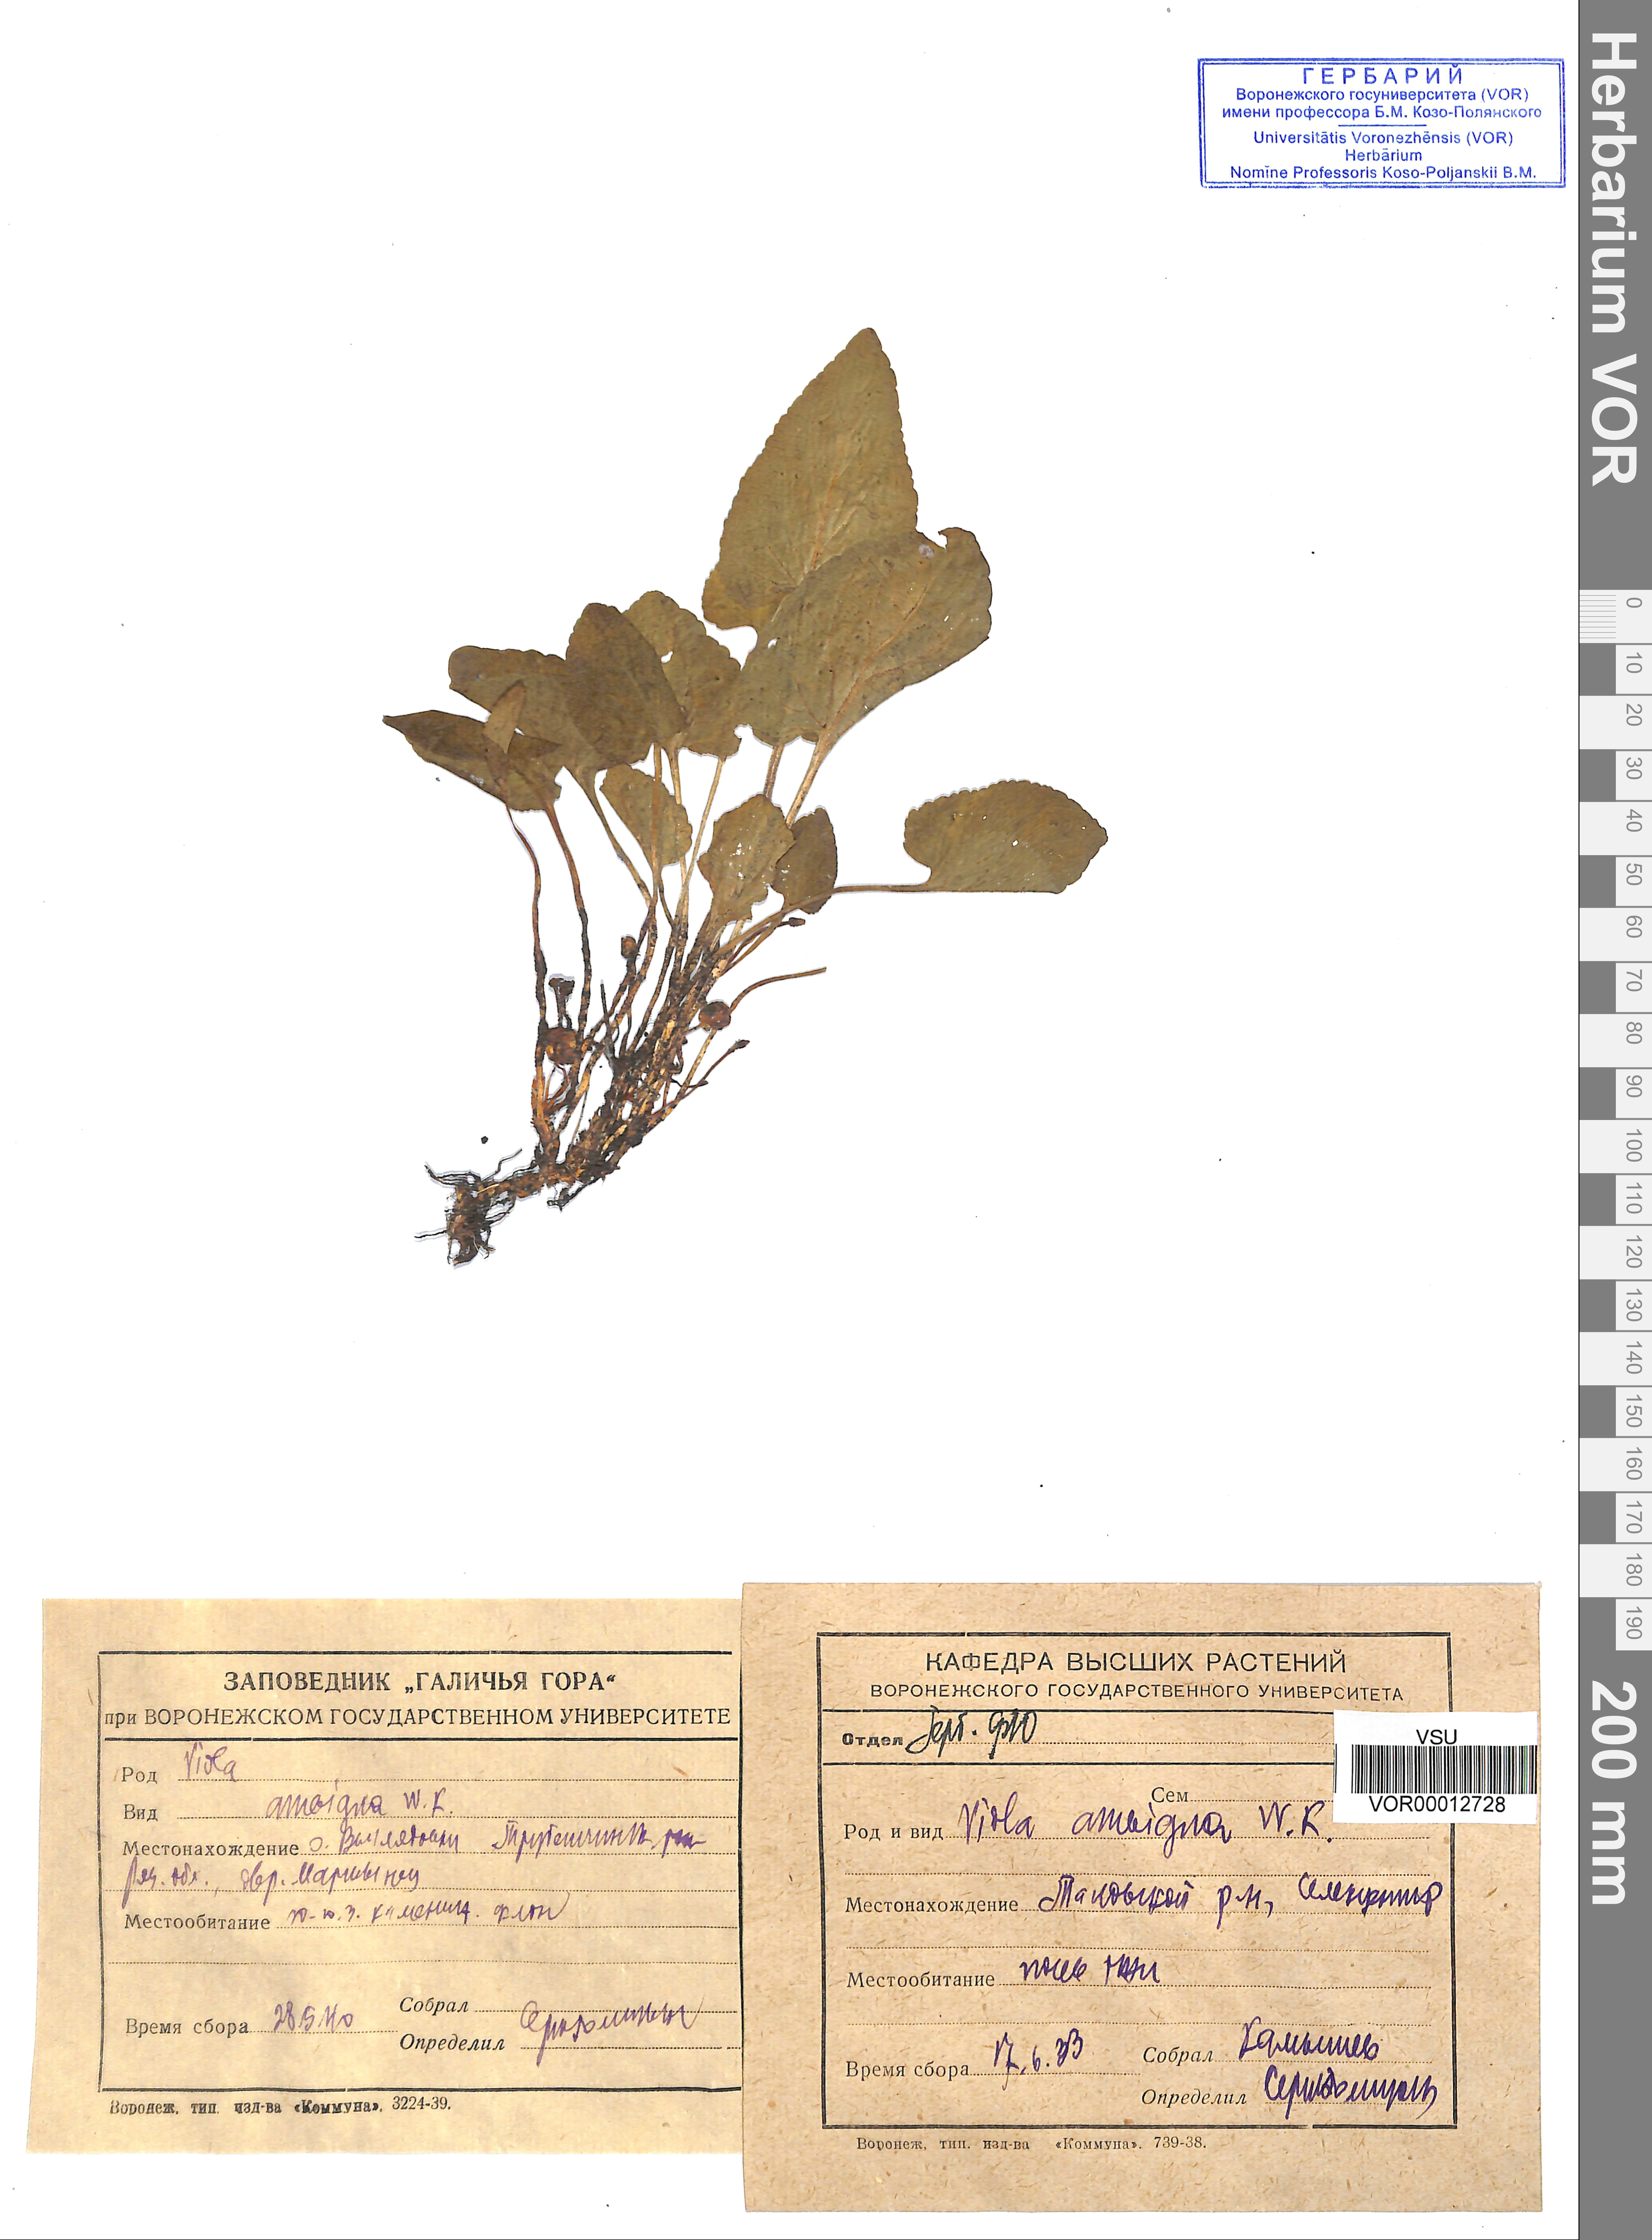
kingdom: Plantae
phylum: Tracheophyta
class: Magnoliopsida
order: Malpighiales
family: Violaceae
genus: Viola
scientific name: Viola ambigua
